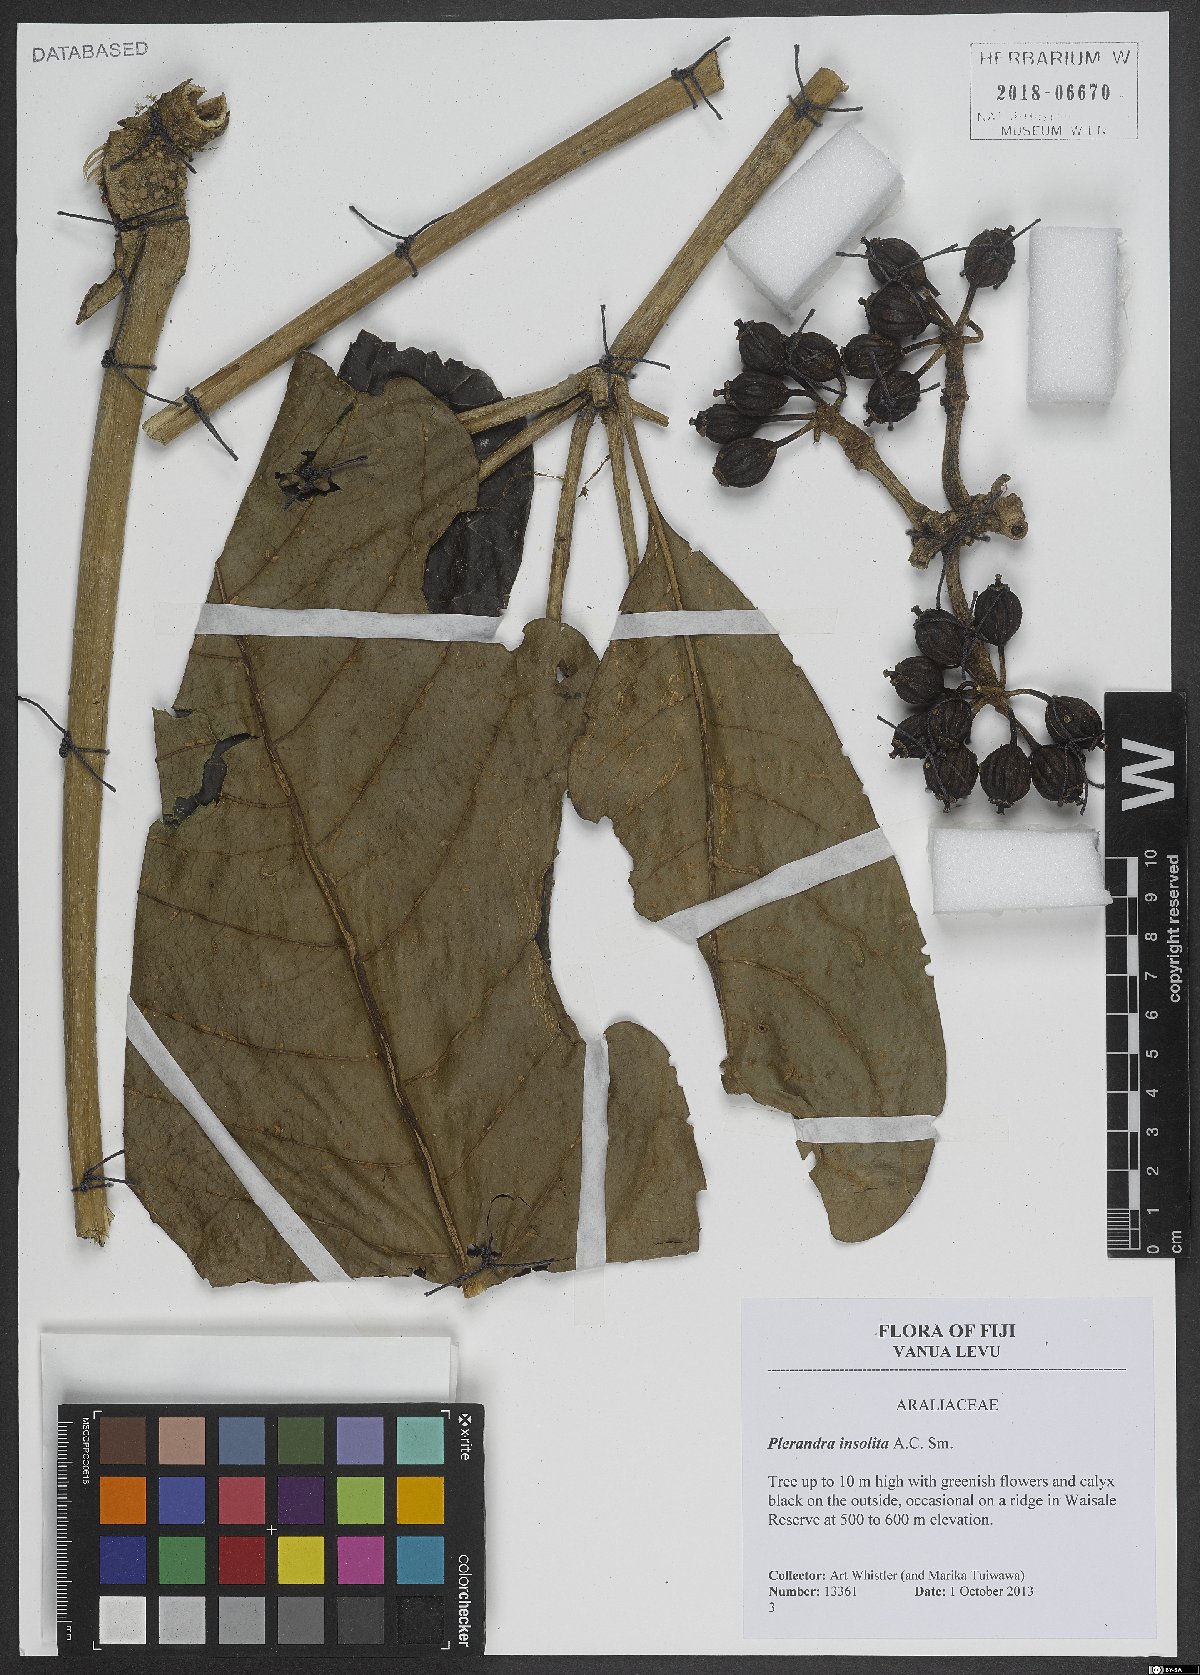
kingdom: Plantae
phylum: Tracheophyta
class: Magnoliopsida
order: Apiales
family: Araliaceae
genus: Plerandra
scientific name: Plerandra insolita
